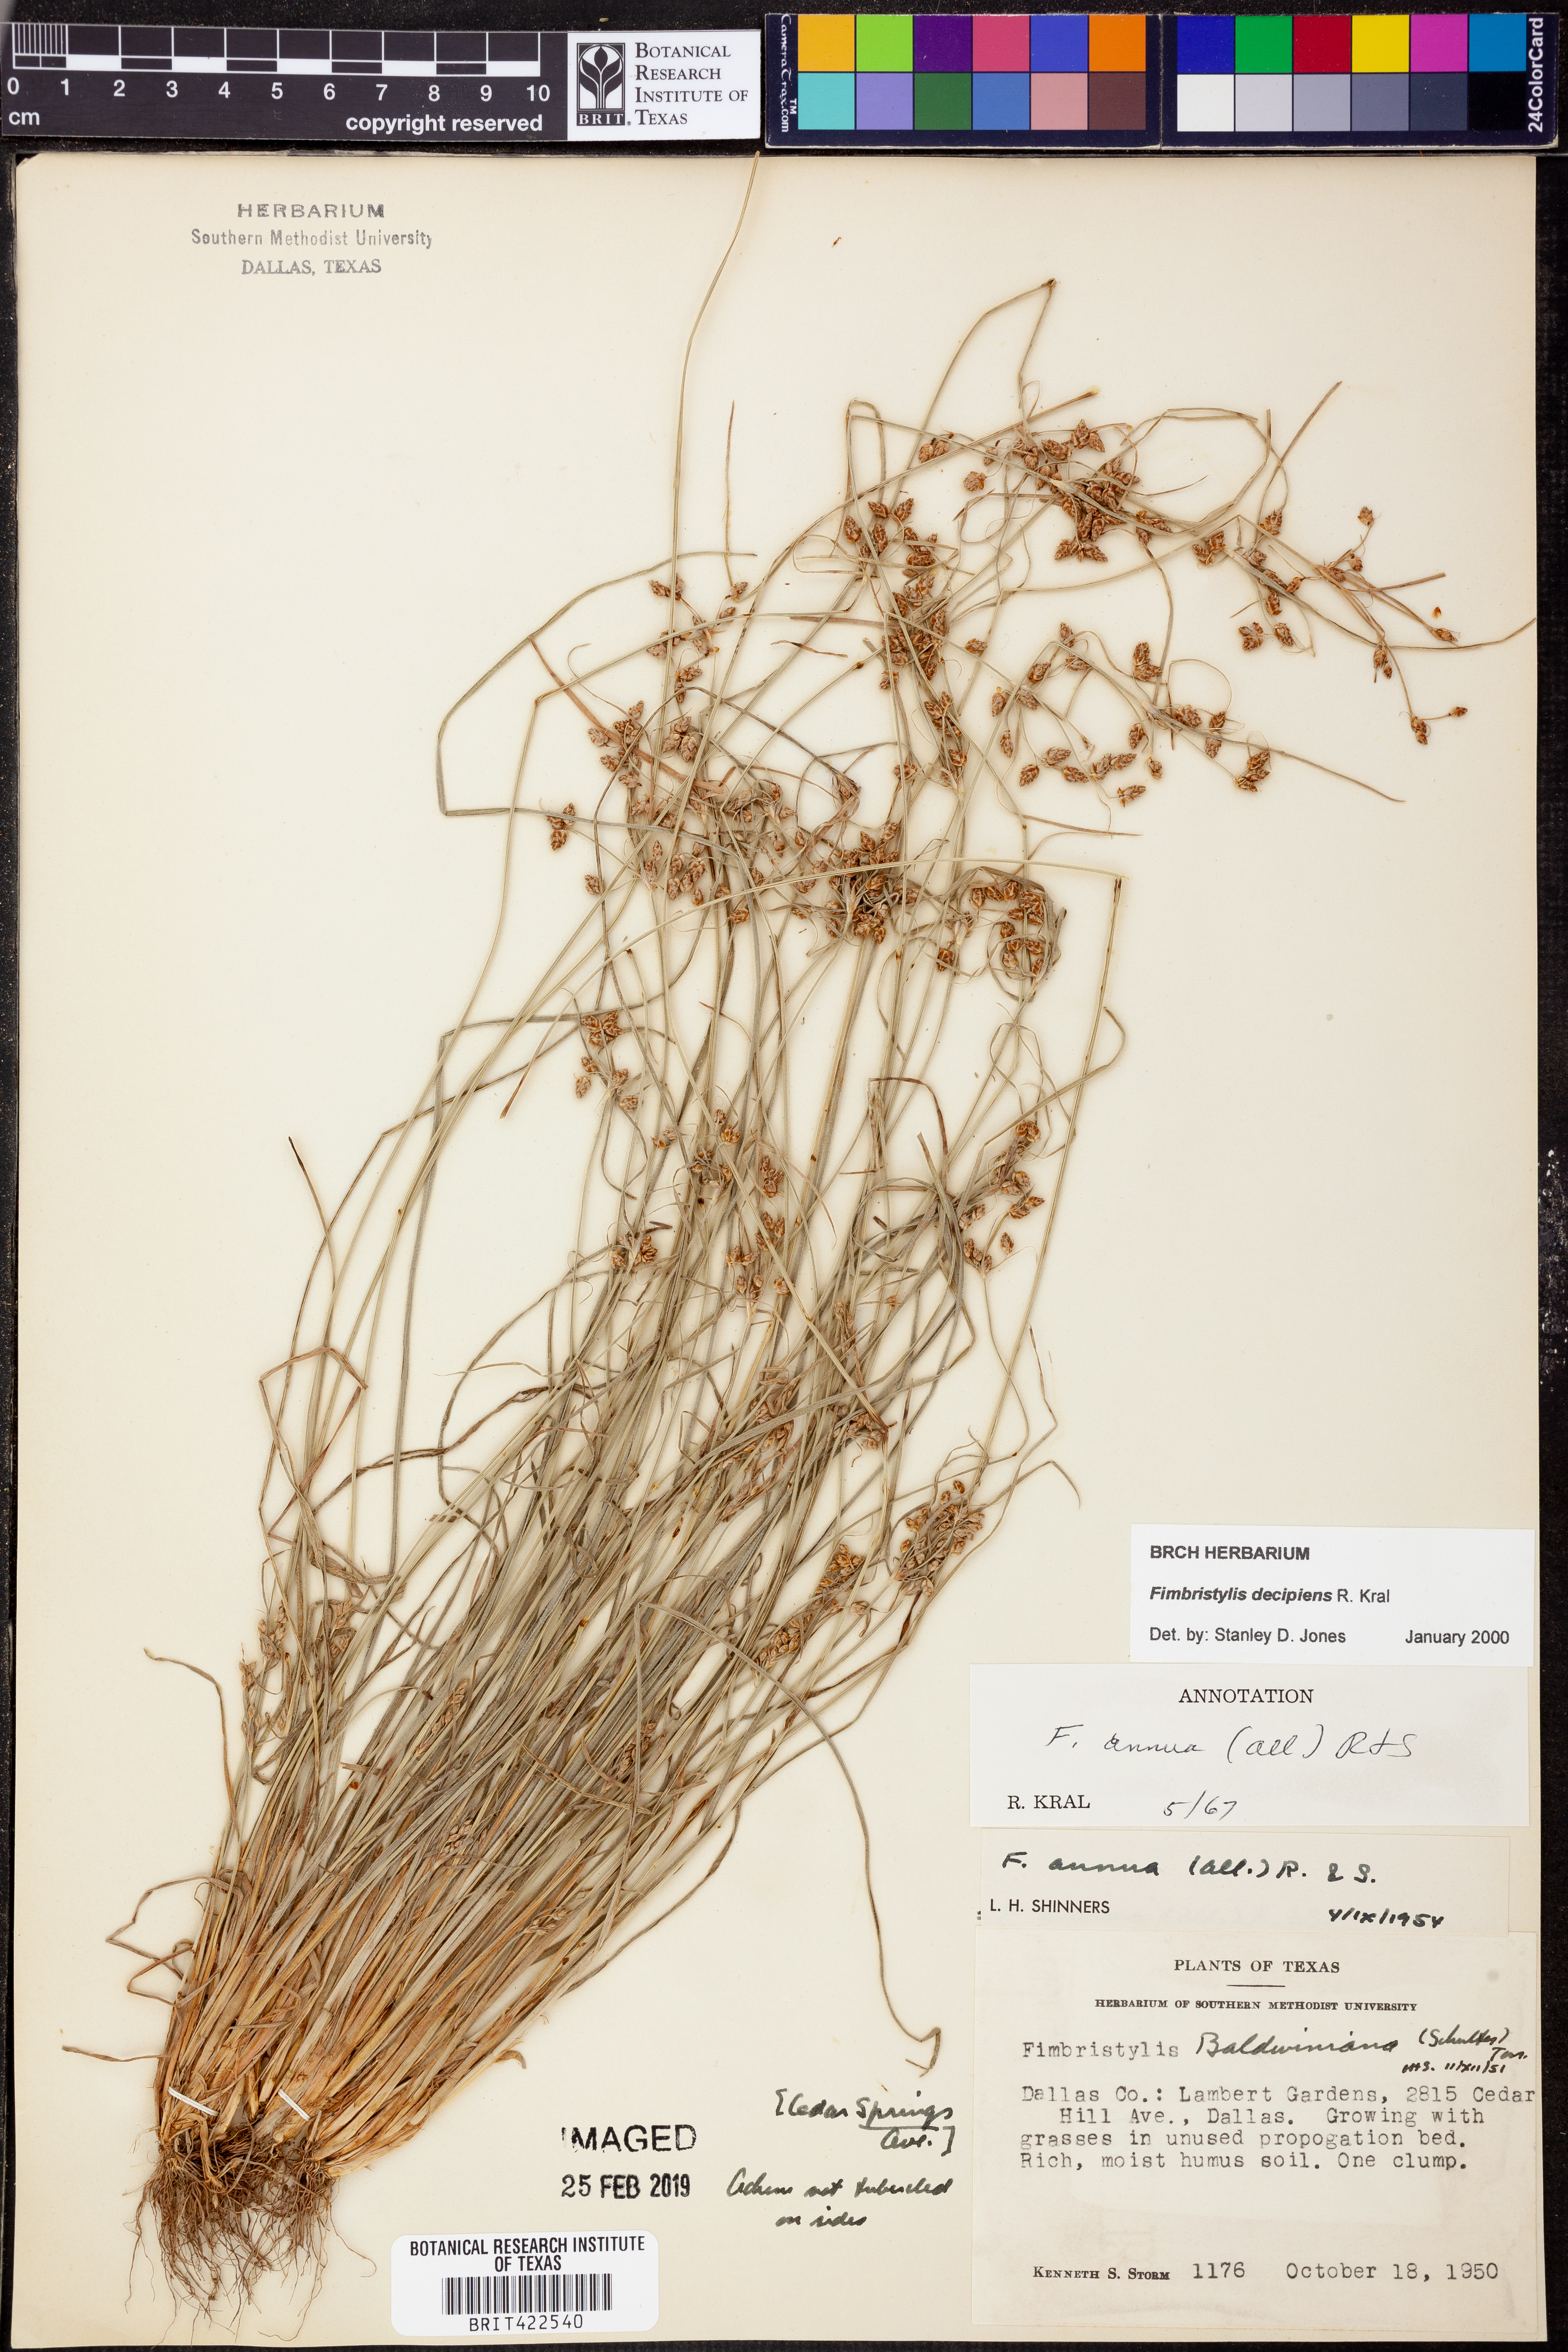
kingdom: Plantae
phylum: Tracheophyta
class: Liliopsida
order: Poales
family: Cyperaceae
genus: Fimbristylis
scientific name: Fimbristylis decipiens
